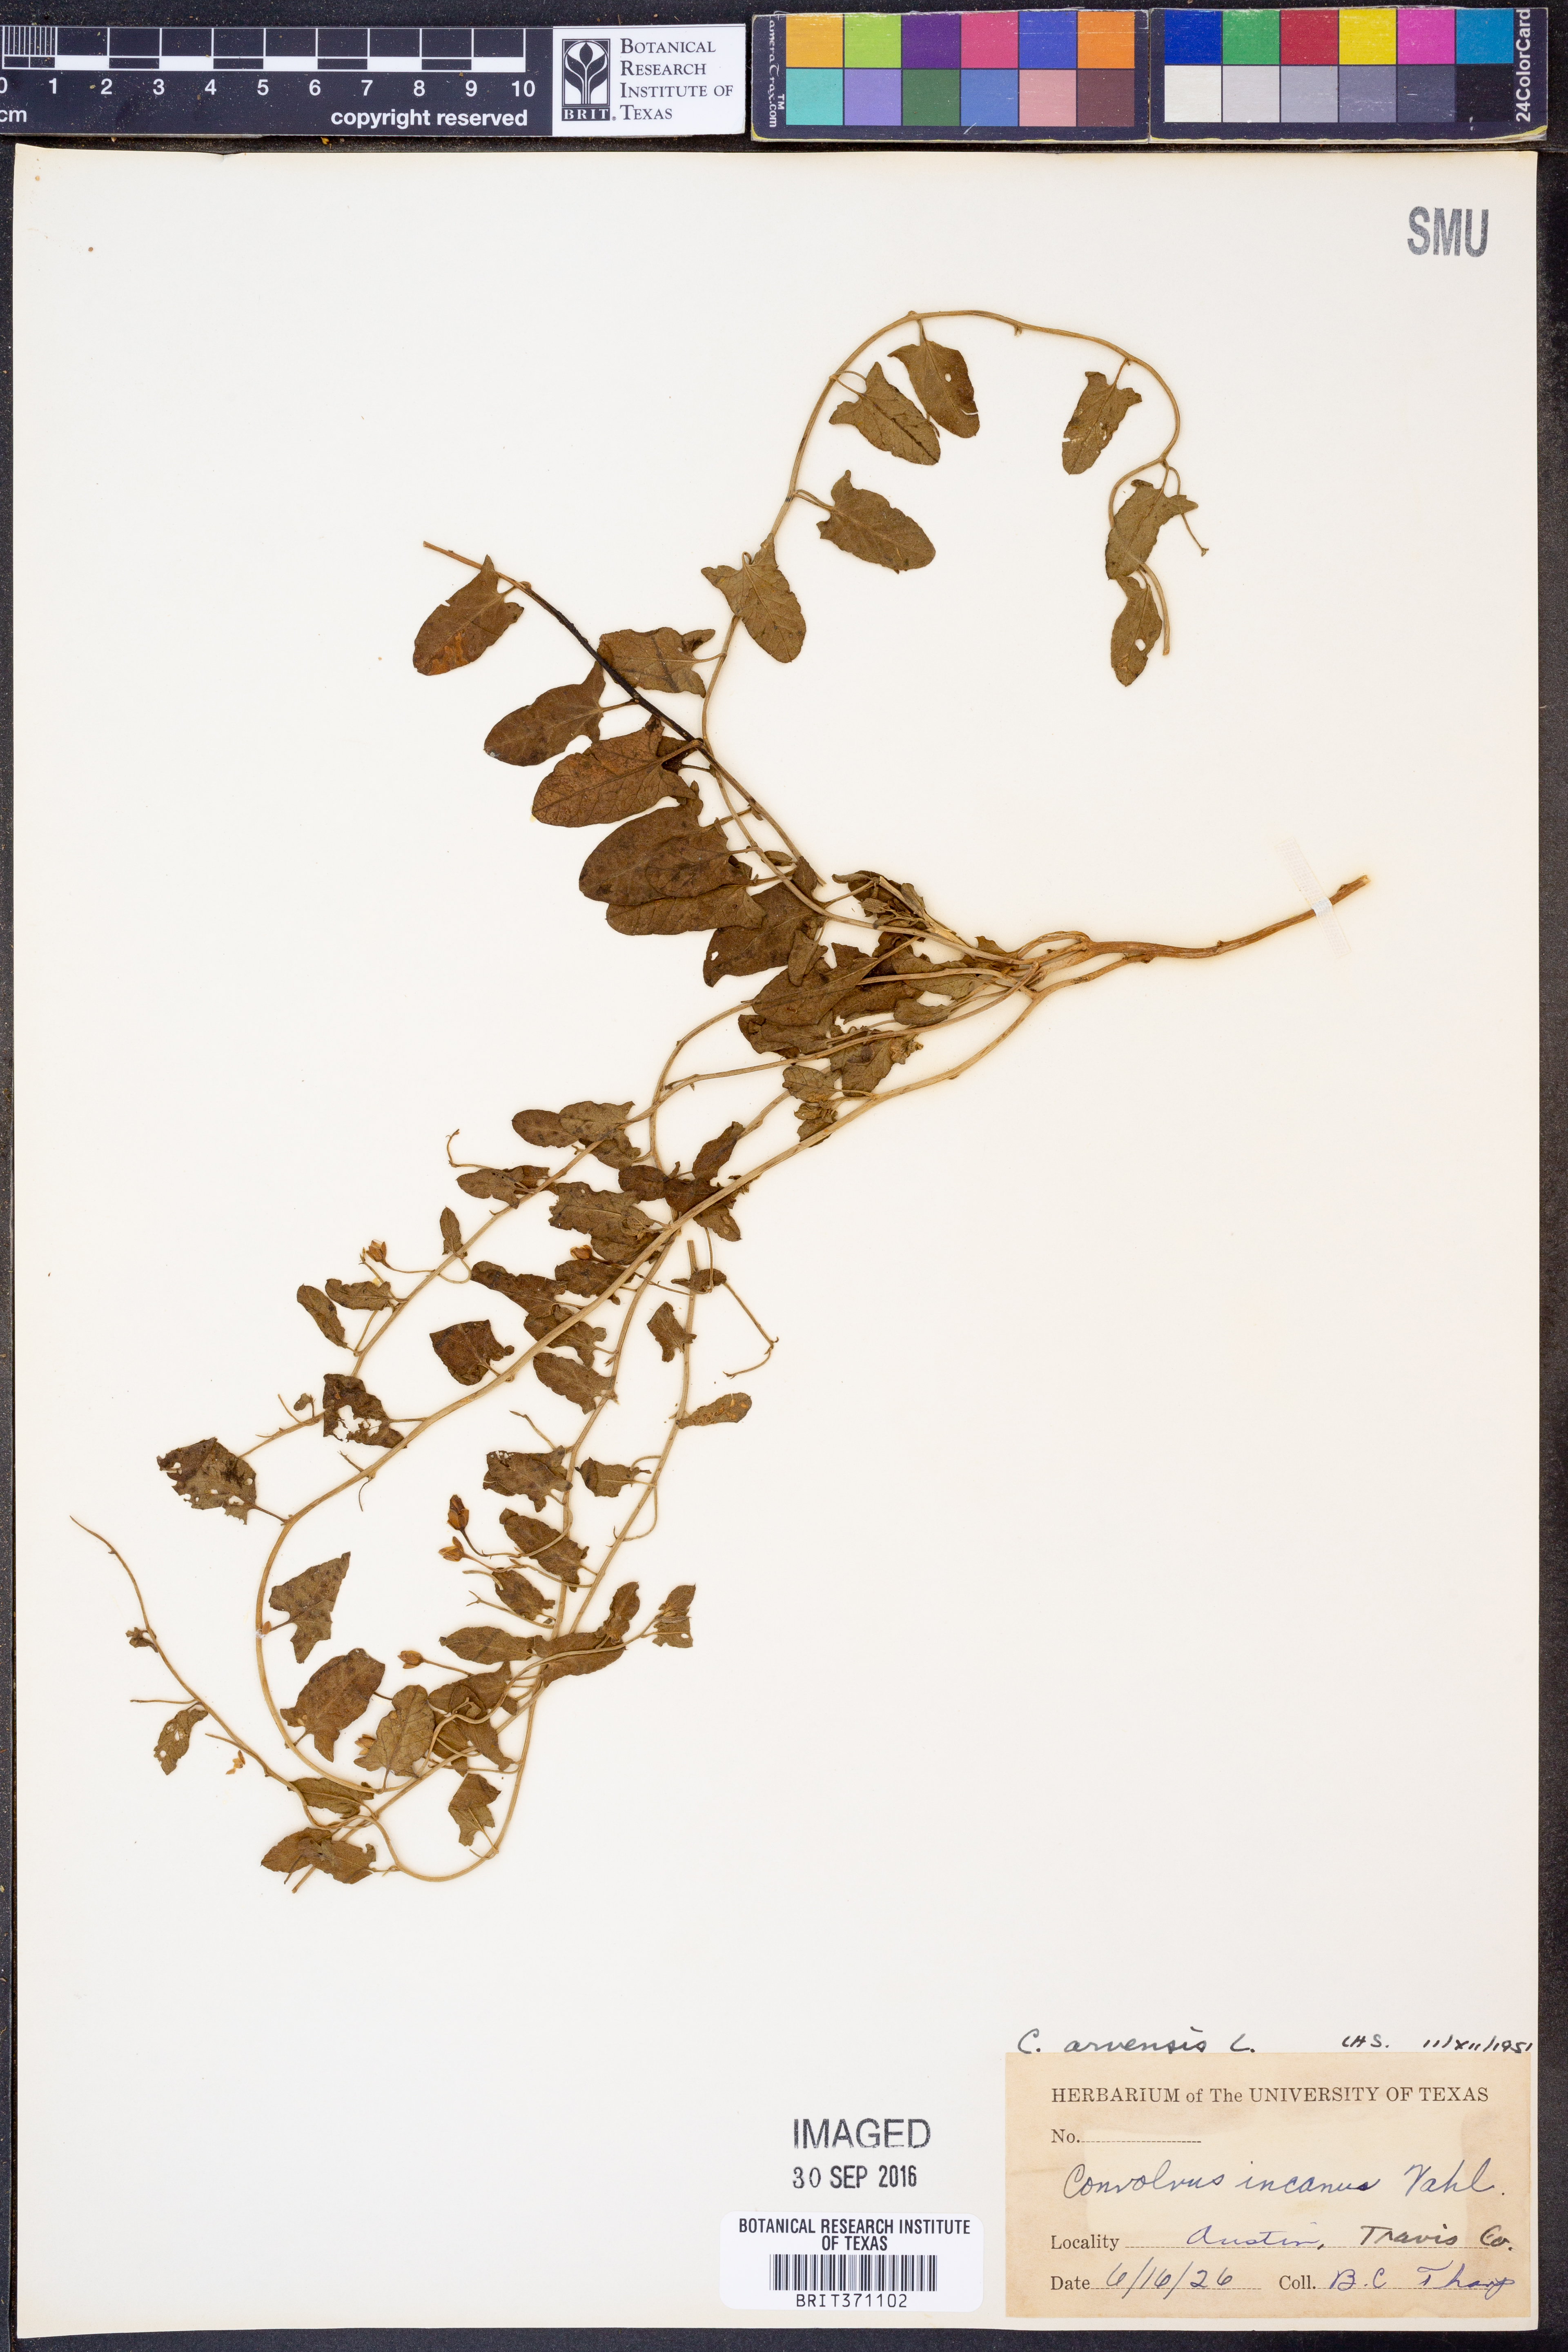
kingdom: Plantae
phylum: Tracheophyta
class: Magnoliopsida
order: Solanales
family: Convolvulaceae
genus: Convolvulus
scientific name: Convolvulus arvensis
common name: Field bindweed
